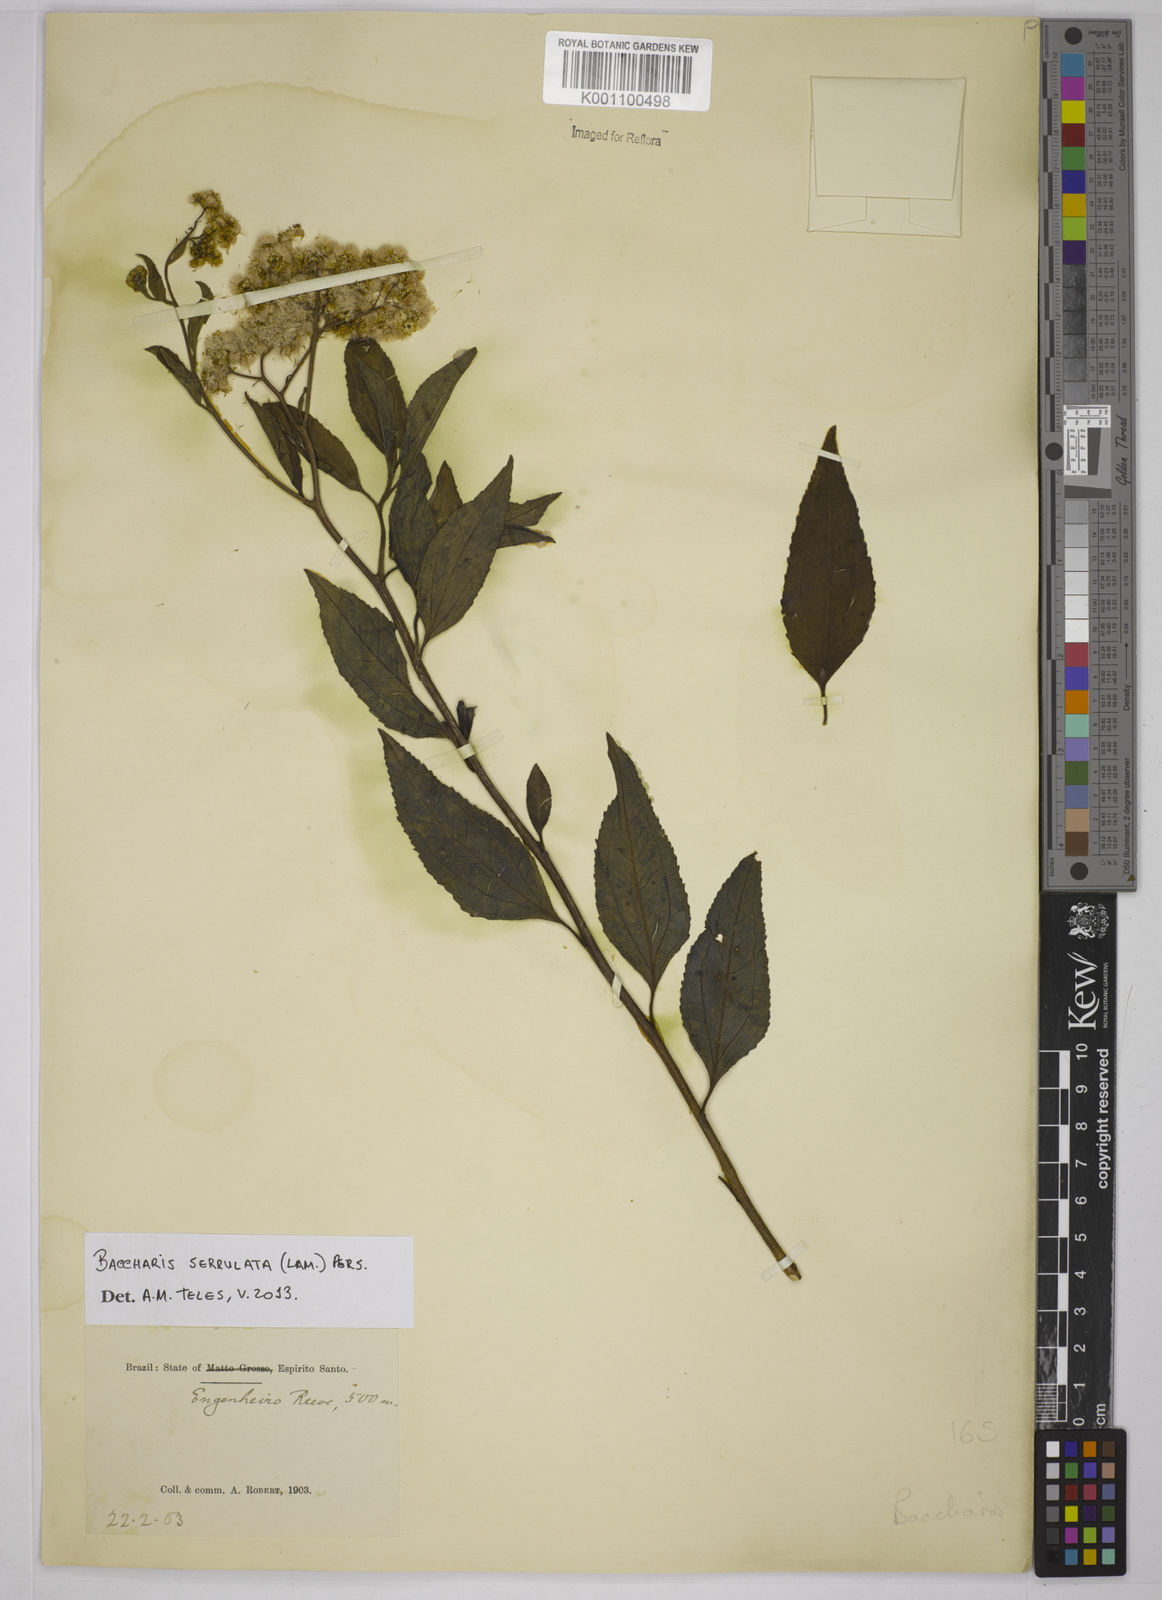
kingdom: Plantae
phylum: Tracheophyta
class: Magnoliopsida
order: Asterales
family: Asteraceae
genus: Baccharis
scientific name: Baccharis serrulata
